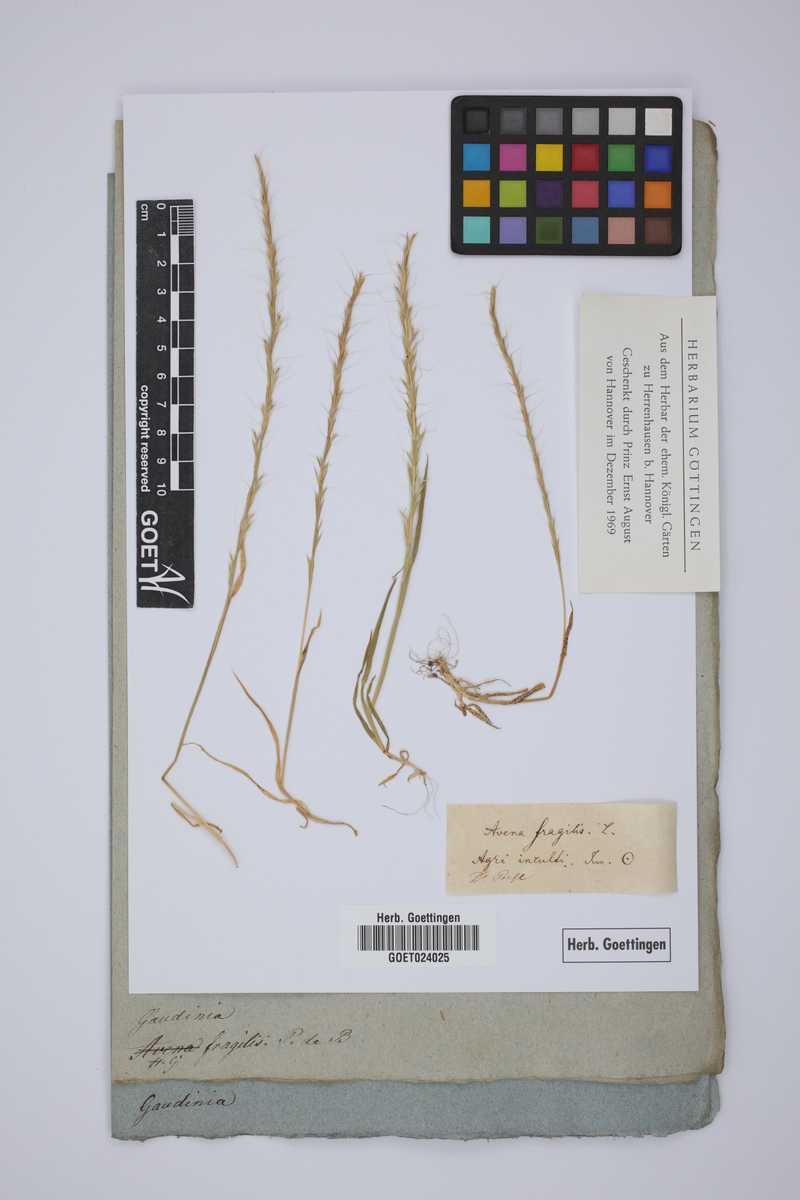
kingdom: Plantae
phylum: Tracheophyta
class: Liliopsida
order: Poales
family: Poaceae
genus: Gaudinia
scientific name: Gaudinia fragilis
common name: French oat-grass
